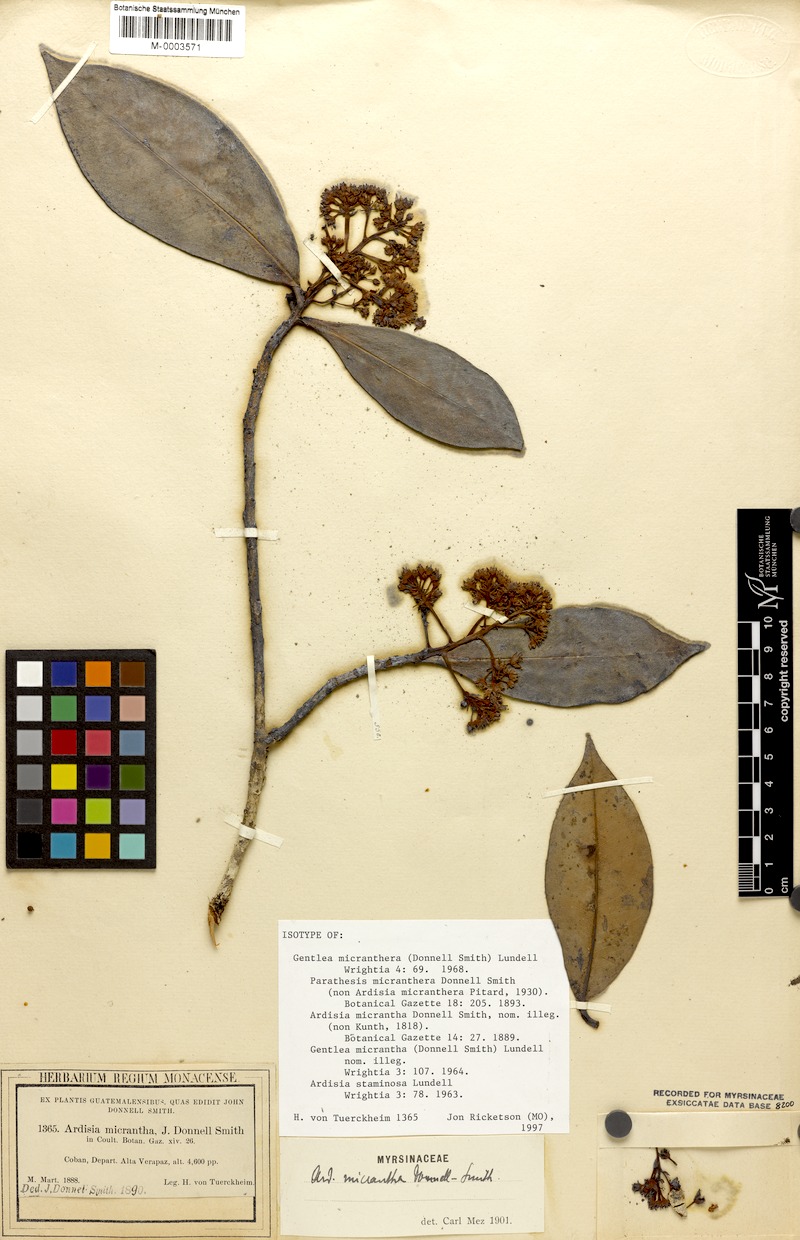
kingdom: Plantae
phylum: Tracheophyta
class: Magnoliopsida
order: Ericales
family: Primulaceae
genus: Gentlea
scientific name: Gentlea micranthera
